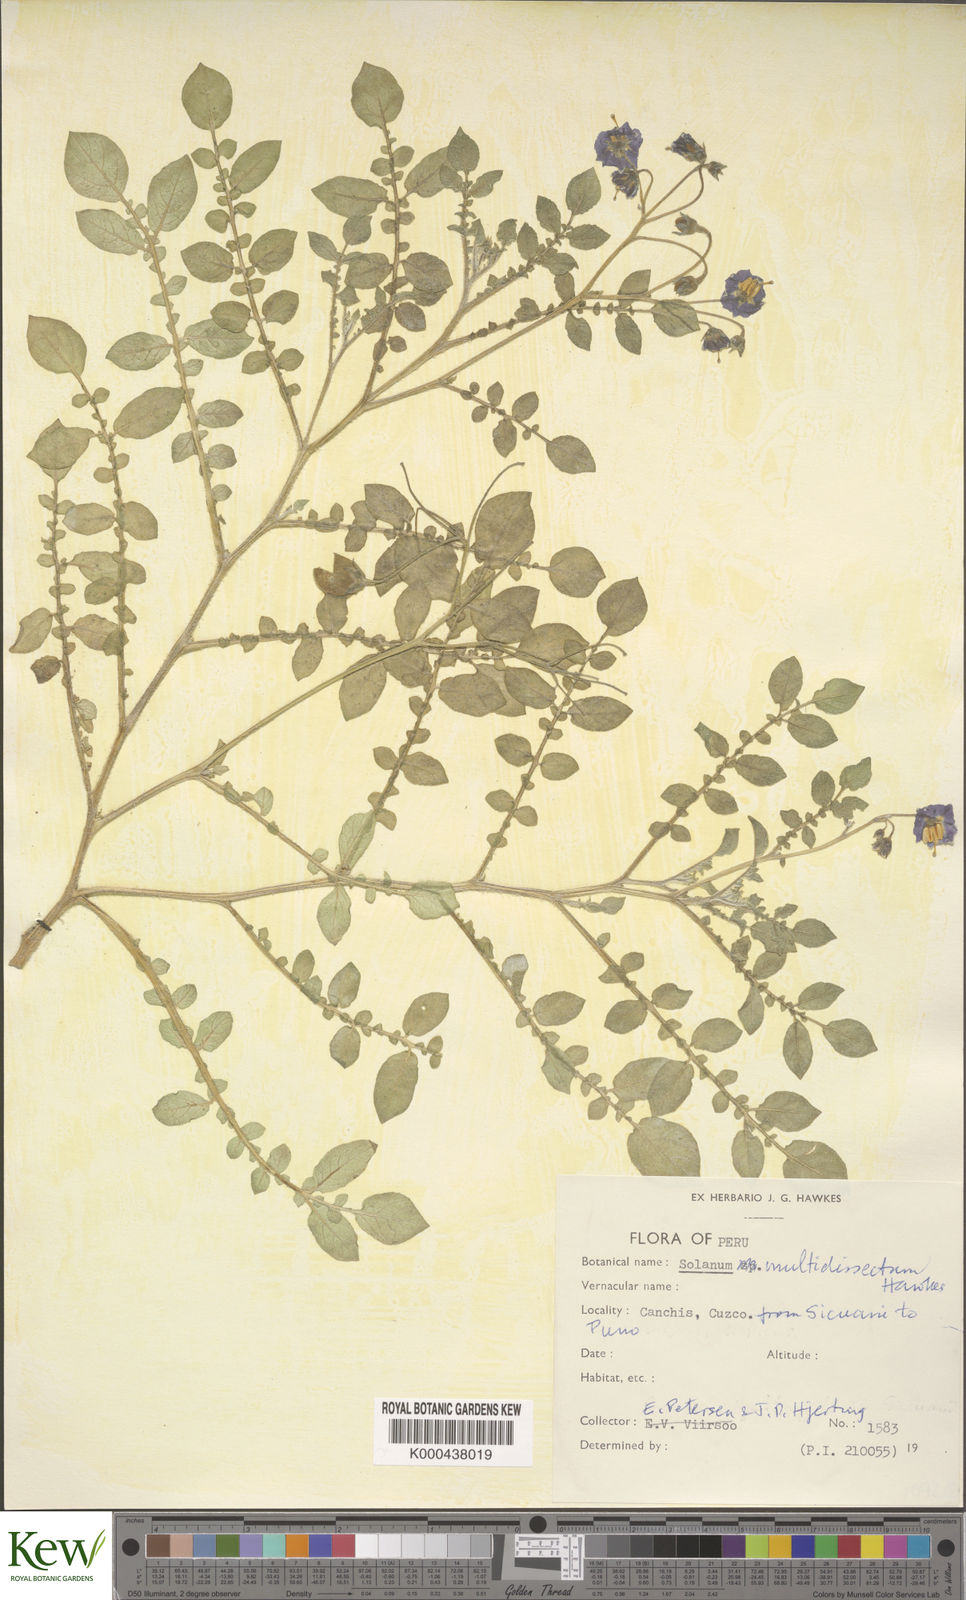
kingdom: Plantae
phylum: Tracheophyta
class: Magnoliopsida
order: Solanales
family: Solanaceae
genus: Solanum
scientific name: Solanum candolleanum
